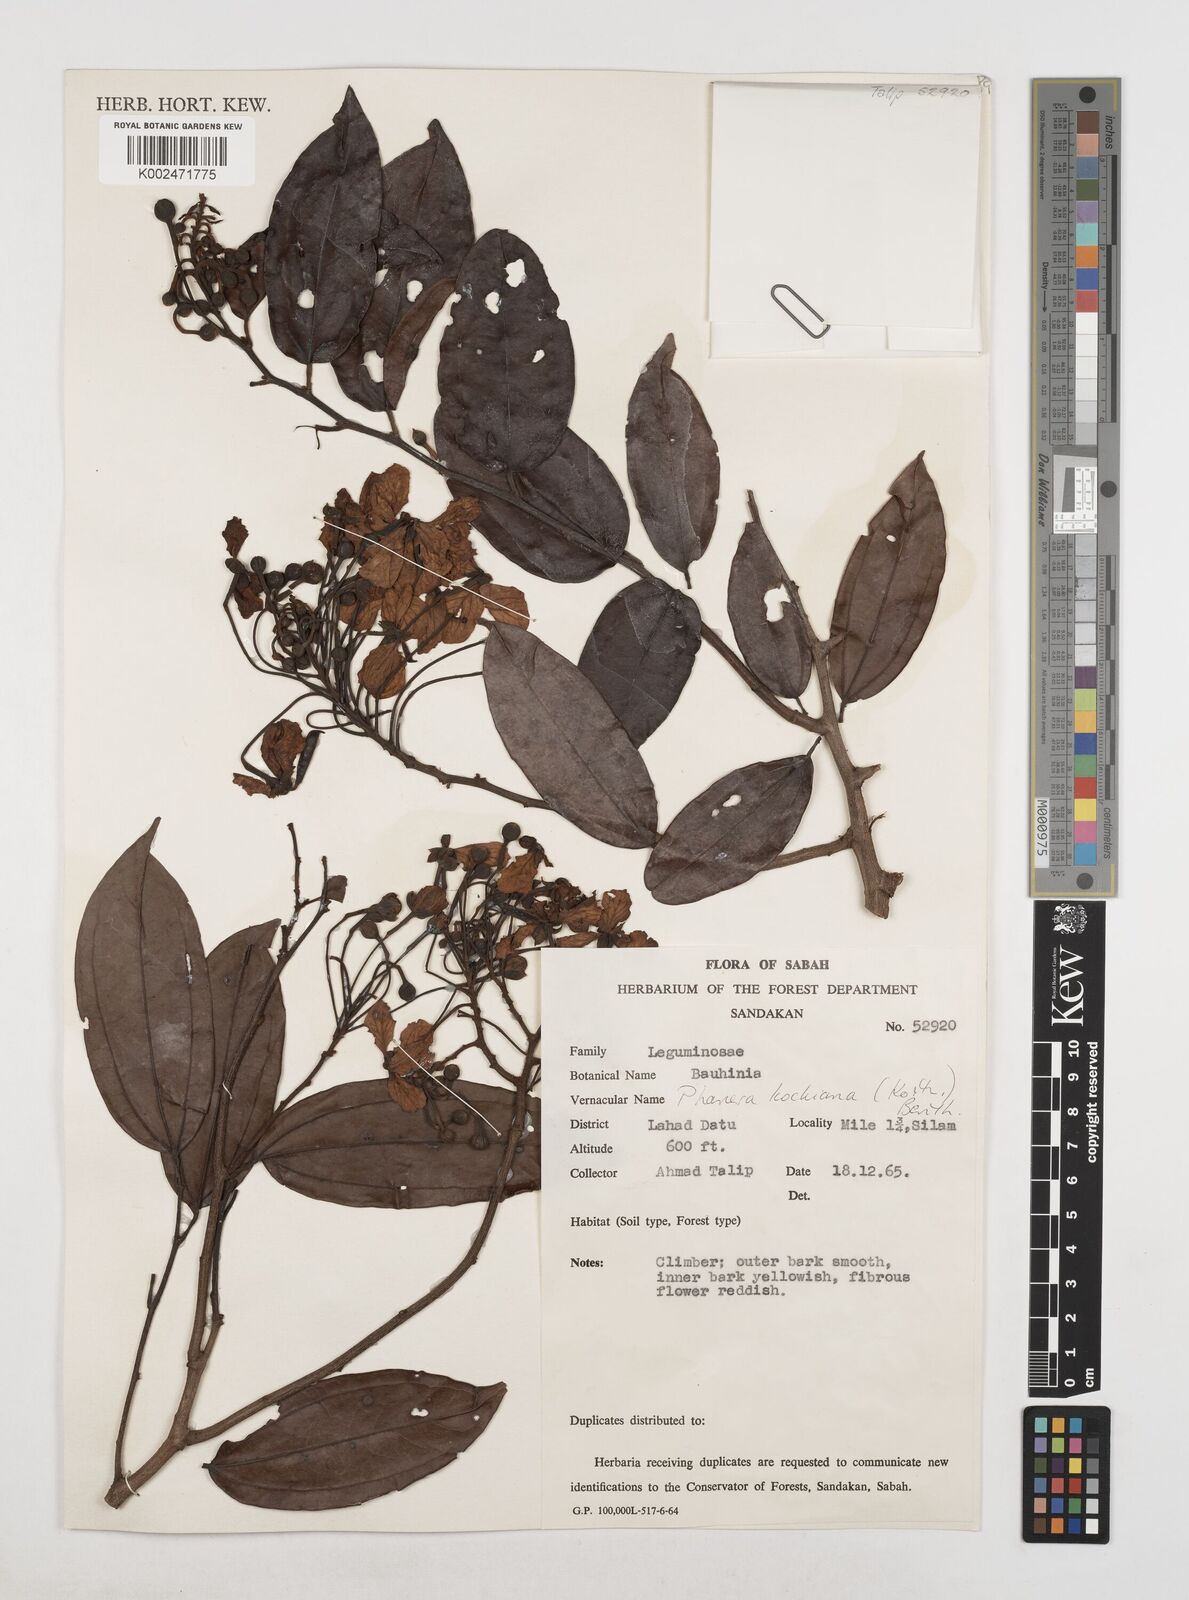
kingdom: Plantae
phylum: Tracheophyta
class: Magnoliopsida
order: Fabales
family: Fabaceae
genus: Phanera
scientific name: Phanera kockiana
